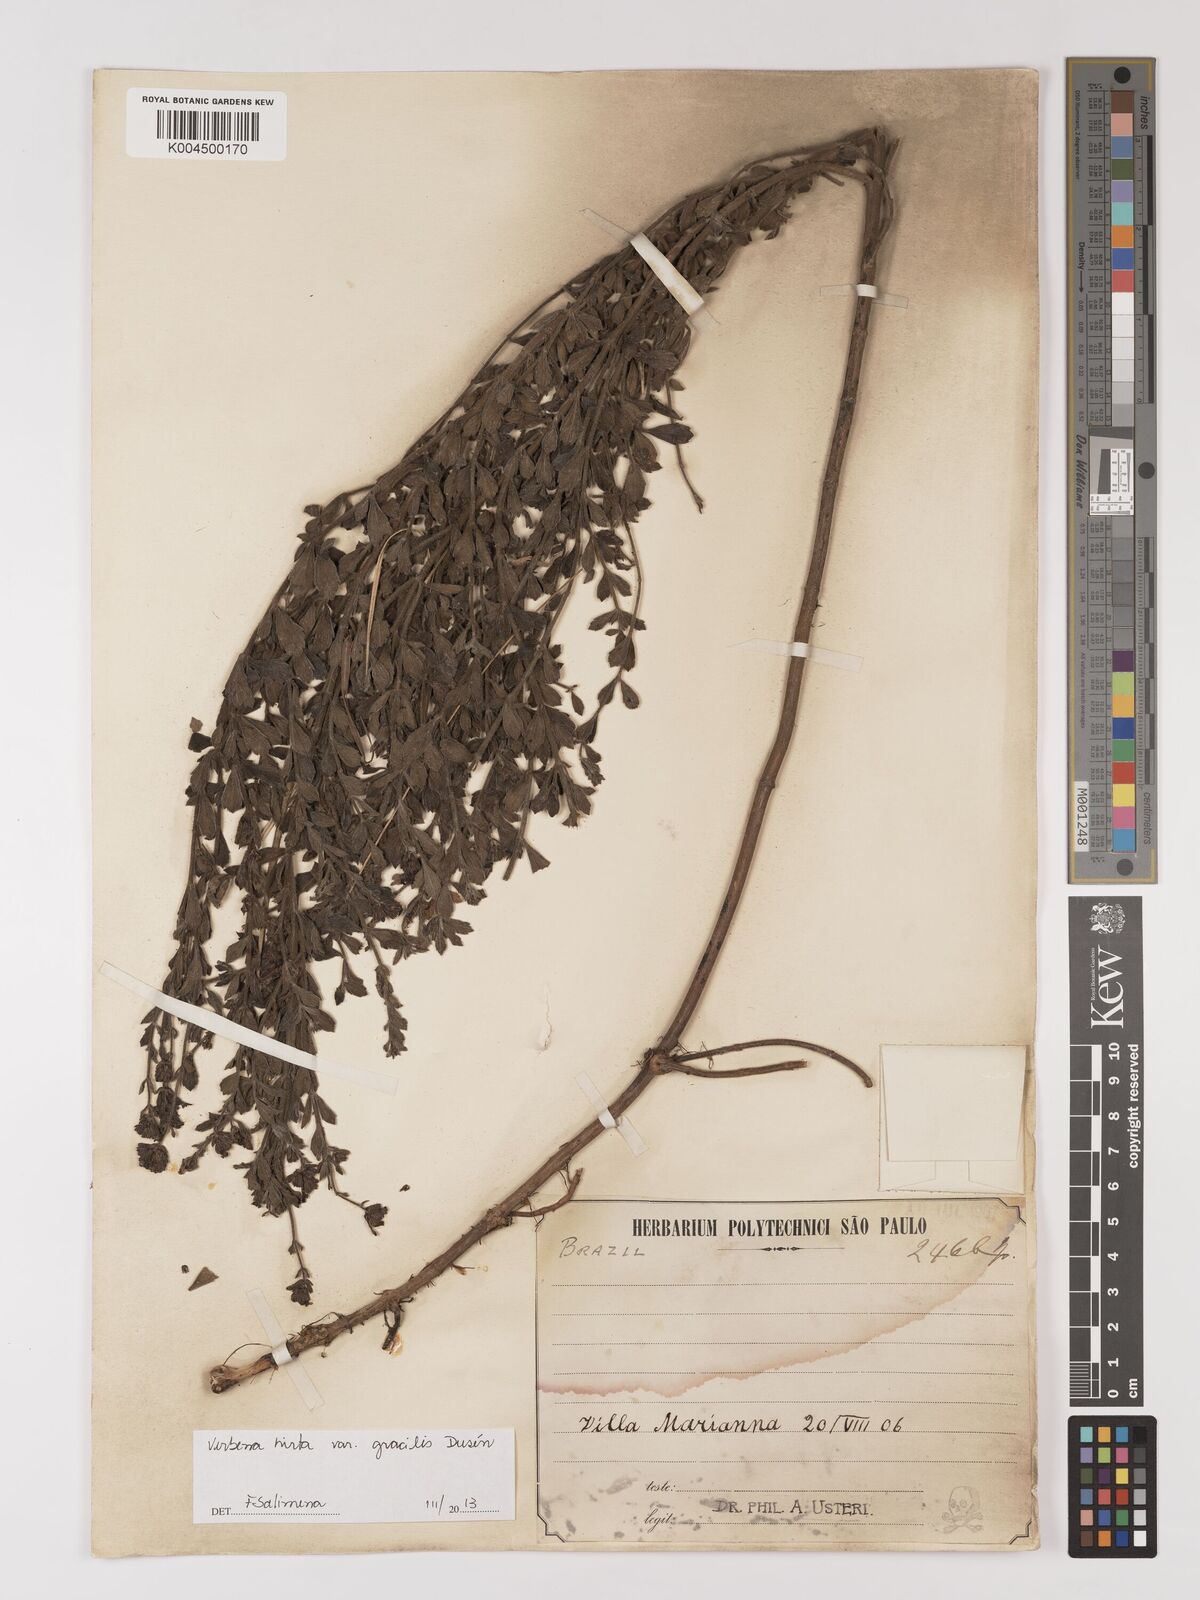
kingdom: Plantae
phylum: Tracheophyta
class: Magnoliopsida
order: Lamiales
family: Verbenaceae
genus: Verbena
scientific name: Verbena hirta
